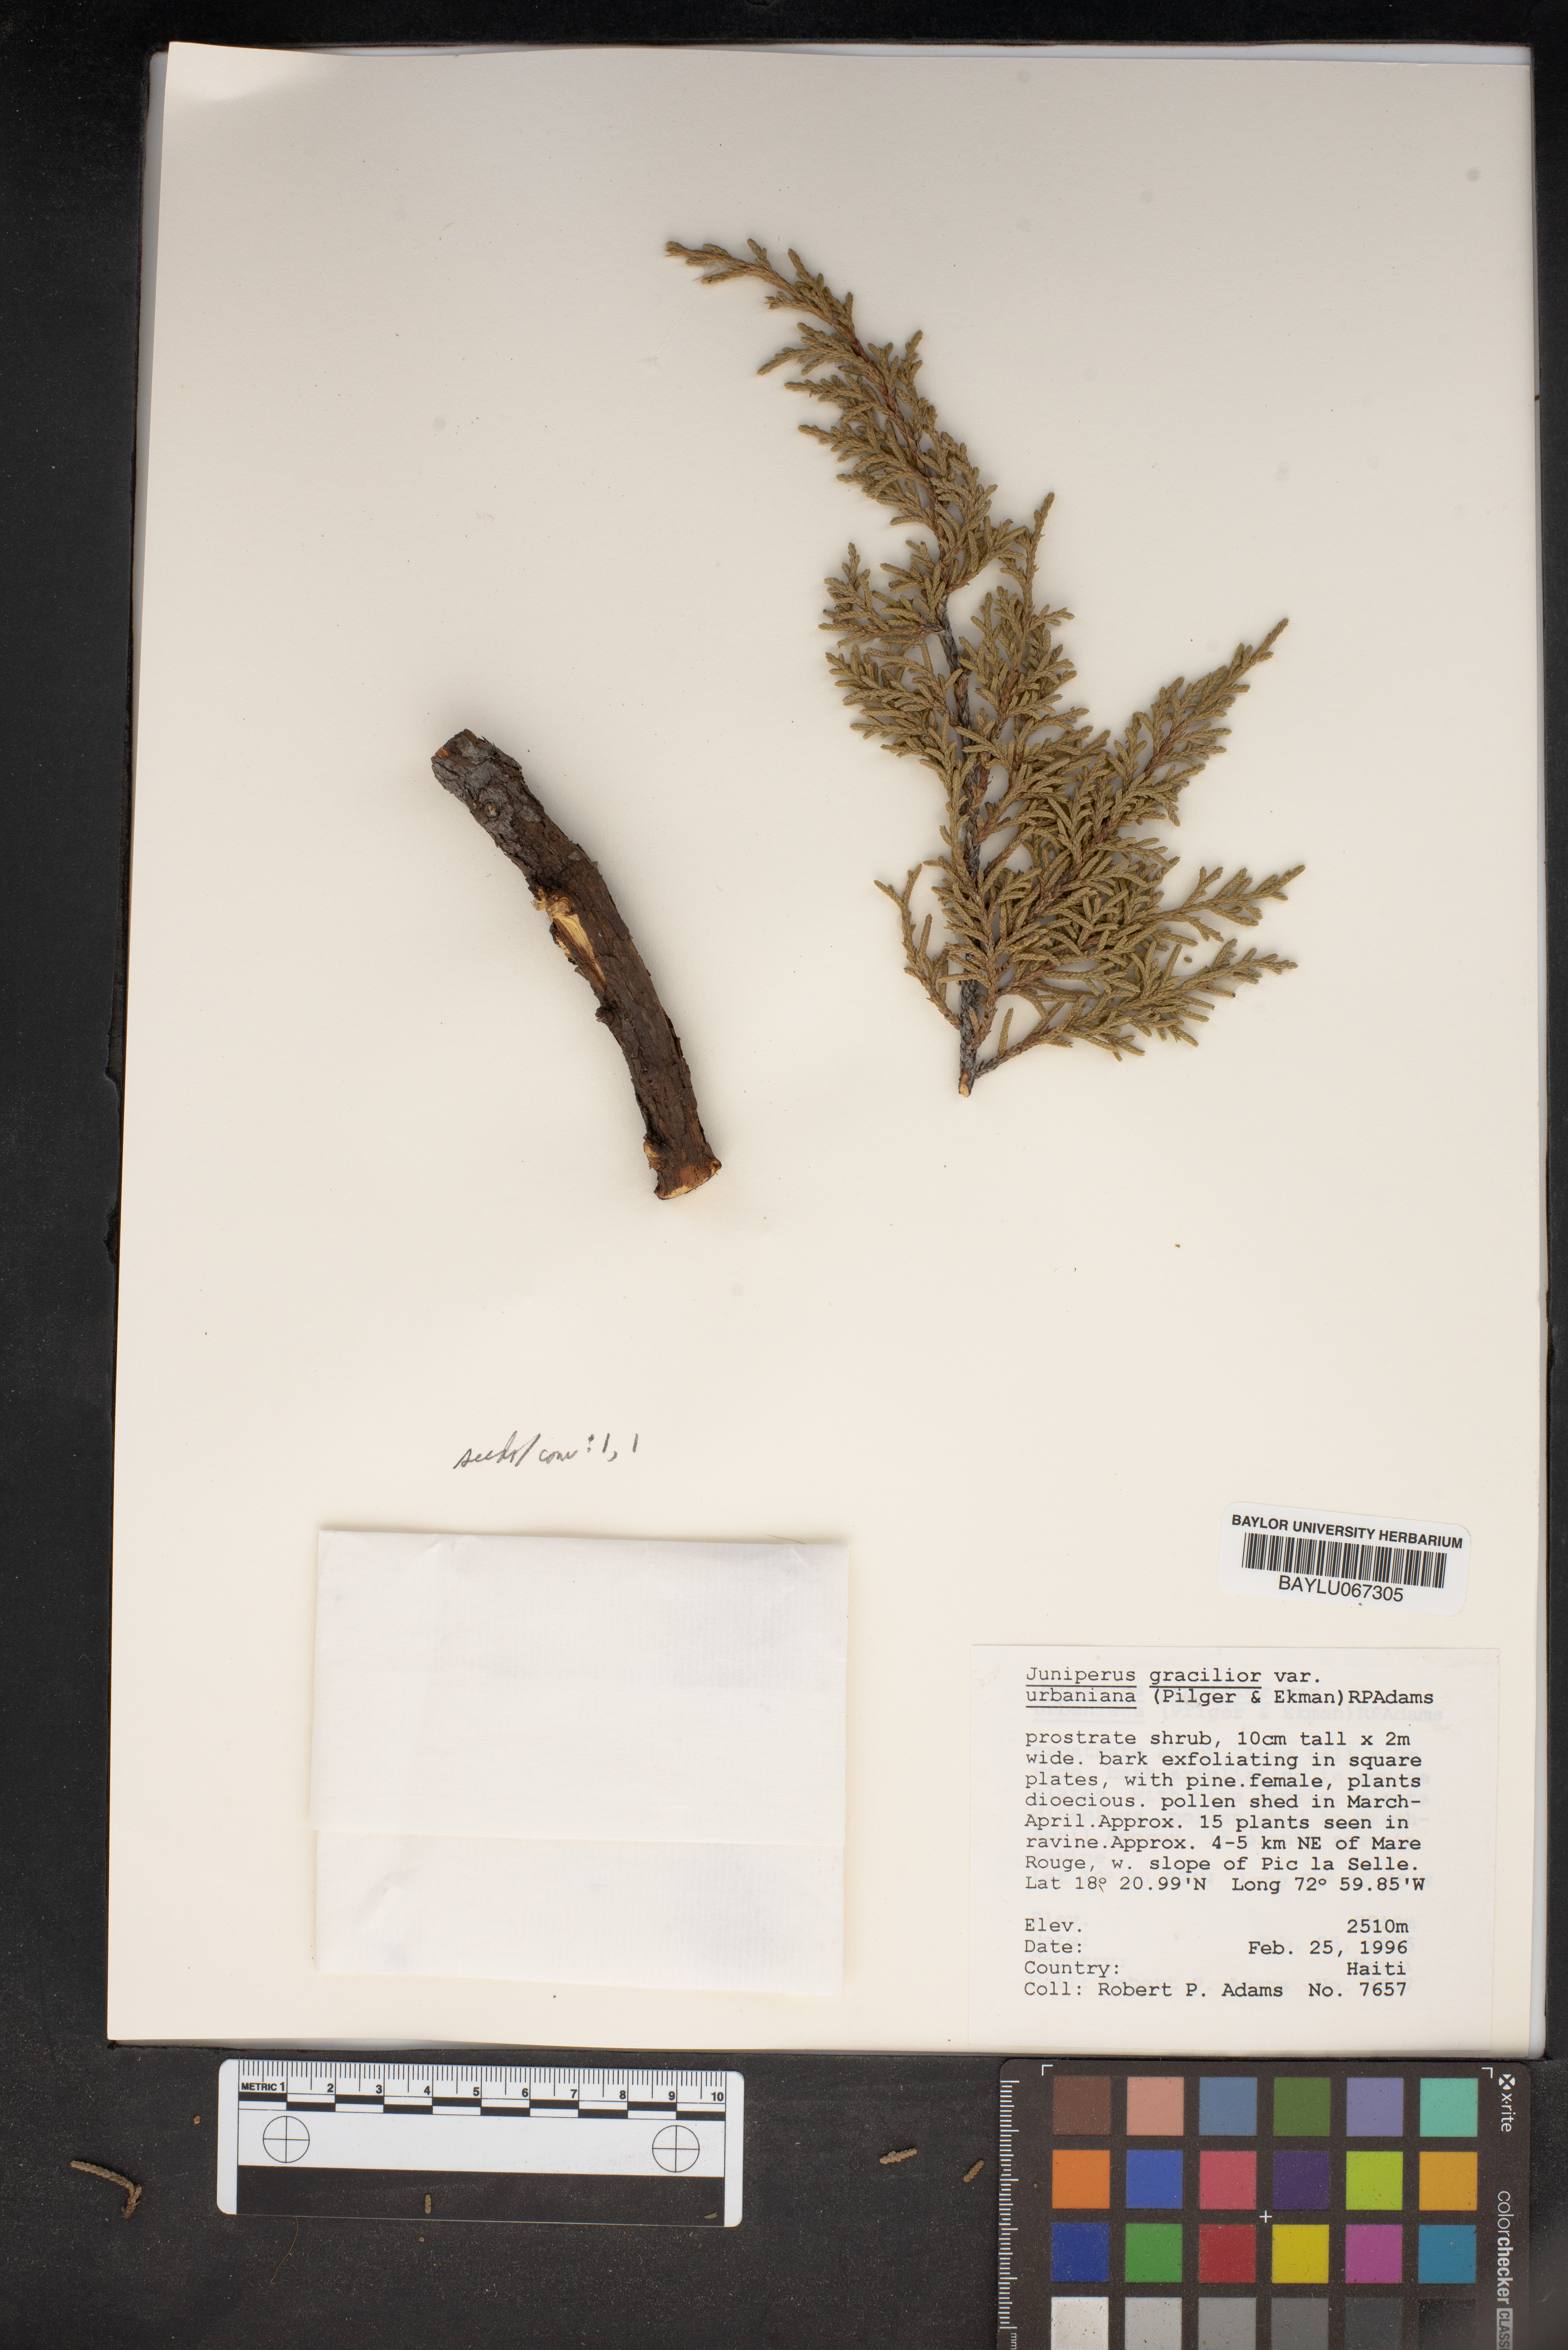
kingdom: Plantae
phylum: Tracheophyta
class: Pinopsida
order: Pinales
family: Cupressaceae
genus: Juniperus
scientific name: Juniperus gracilior
